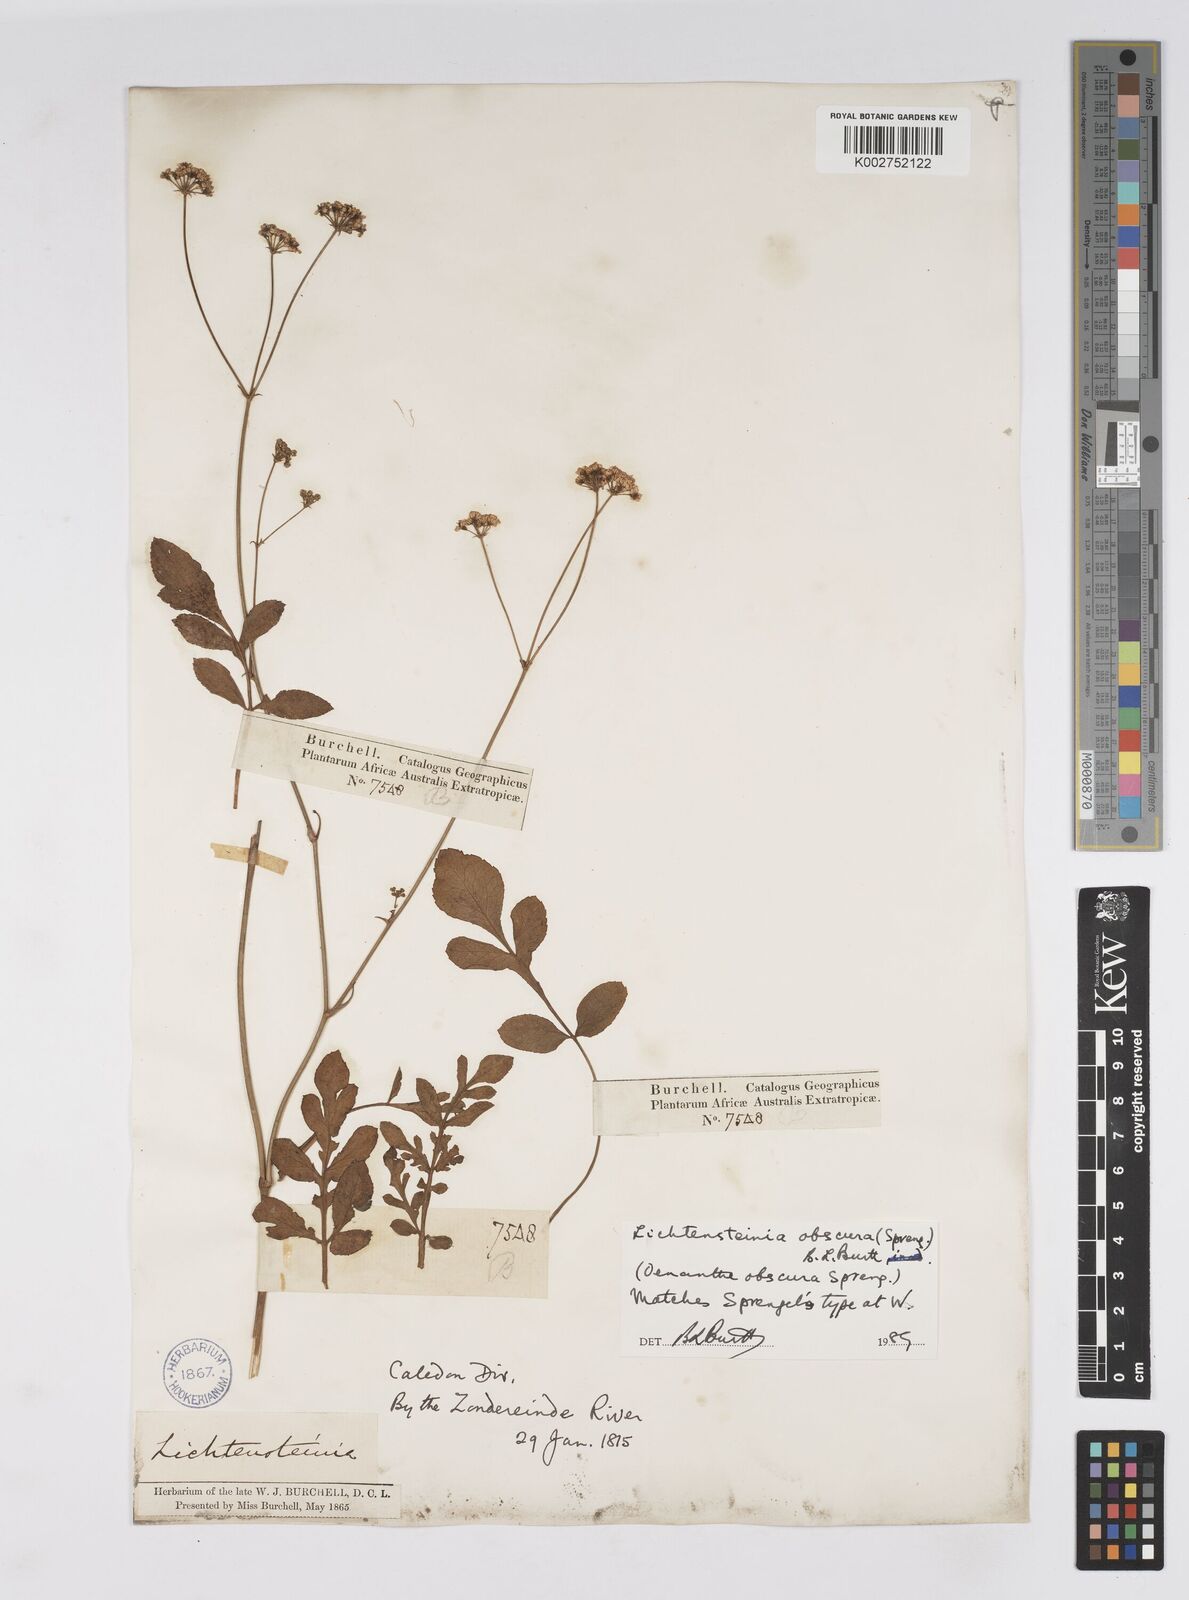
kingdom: Plantae
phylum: Tracheophyta
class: Magnoliopsida
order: Apiales
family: Apiaceae
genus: Lichtensteinia
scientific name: Lichtensteinia obscura
